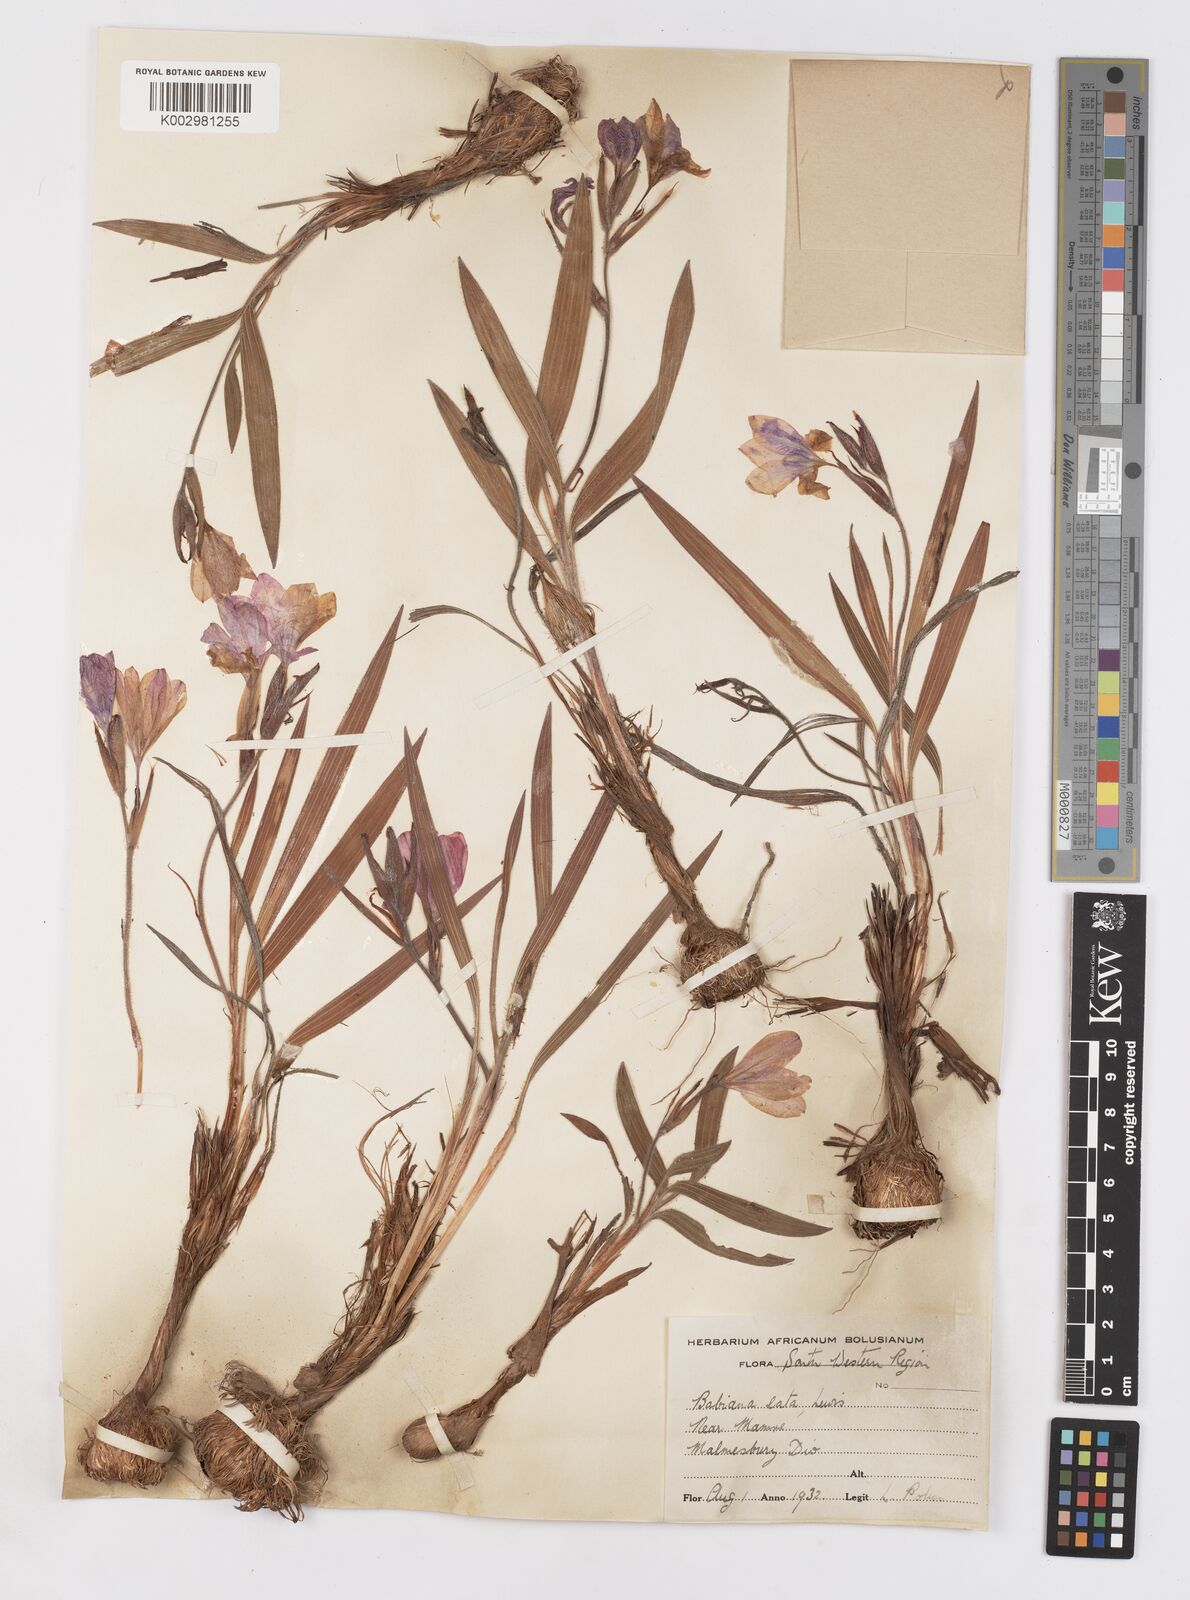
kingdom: Plantae
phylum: Tracheophyta
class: Liliopsida
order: Asparagales
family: Iridaceae
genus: Babiana
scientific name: Babiana blanda
